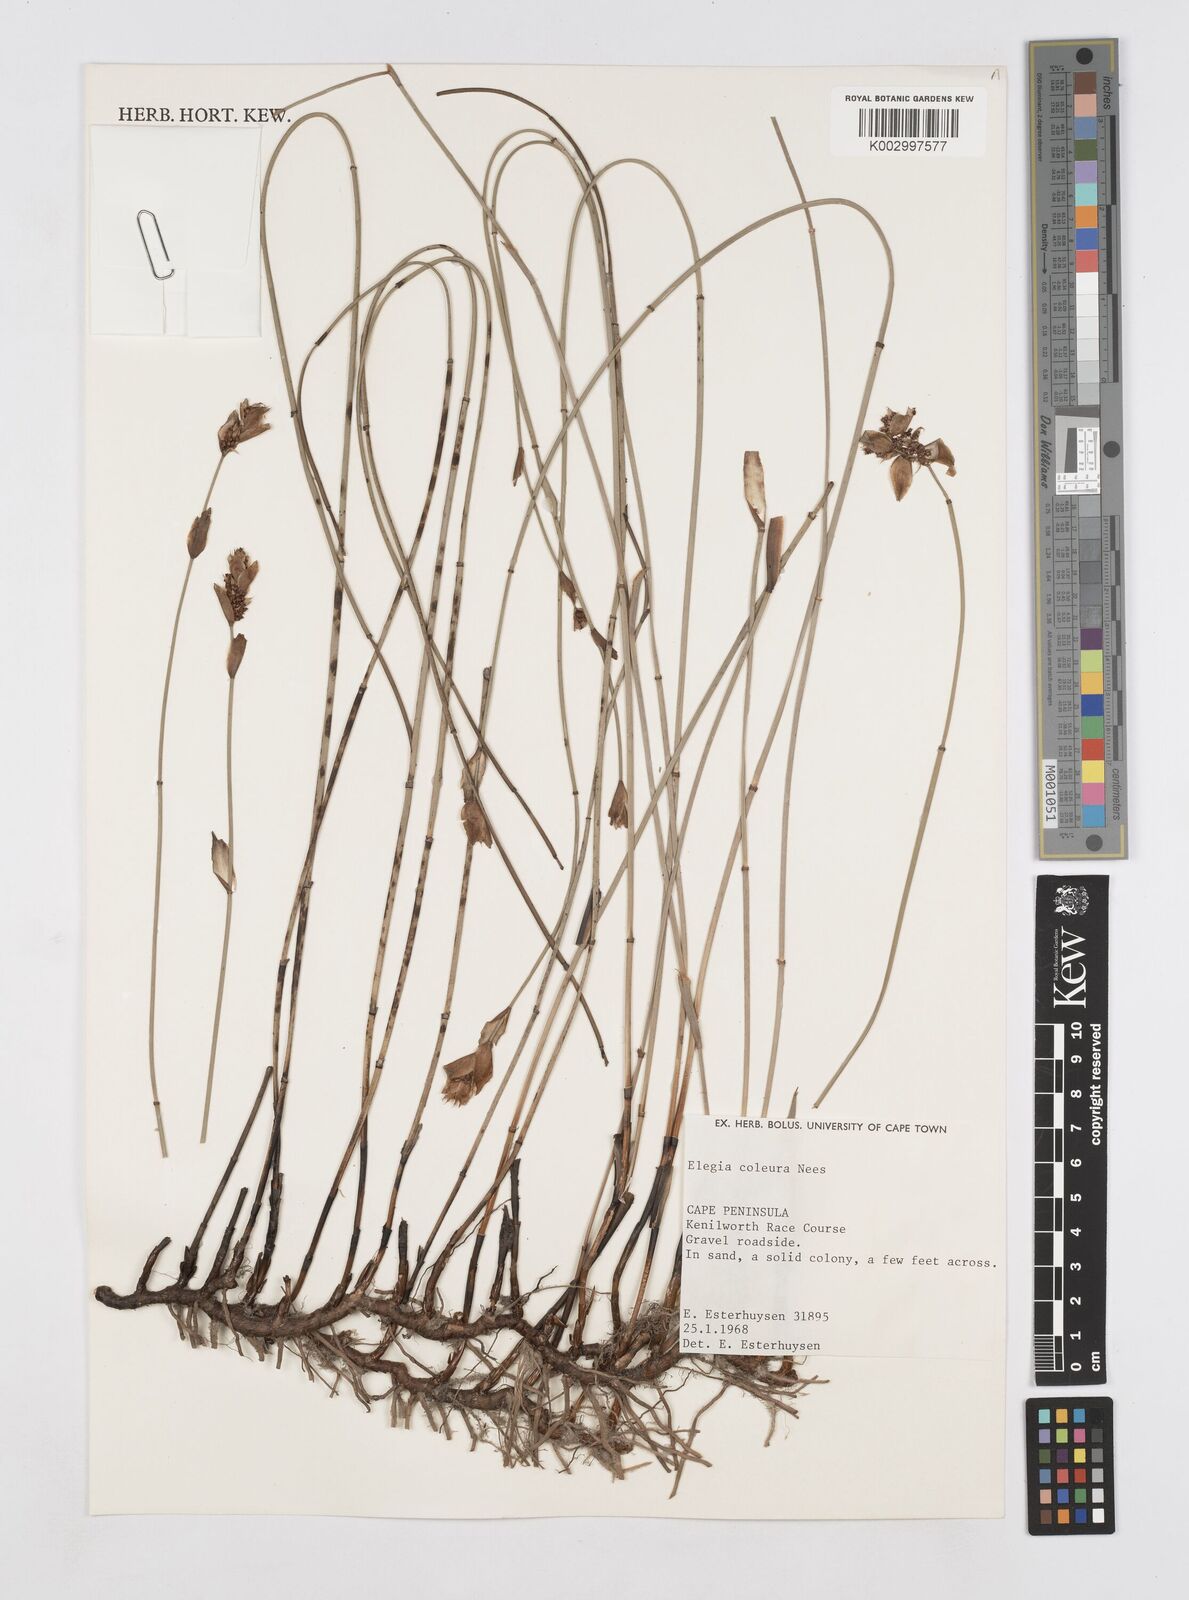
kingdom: Plantae
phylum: Tracheophyta
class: Liliopsida
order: Poales
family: Restionaceae
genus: Elegia
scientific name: Elegia coleura
